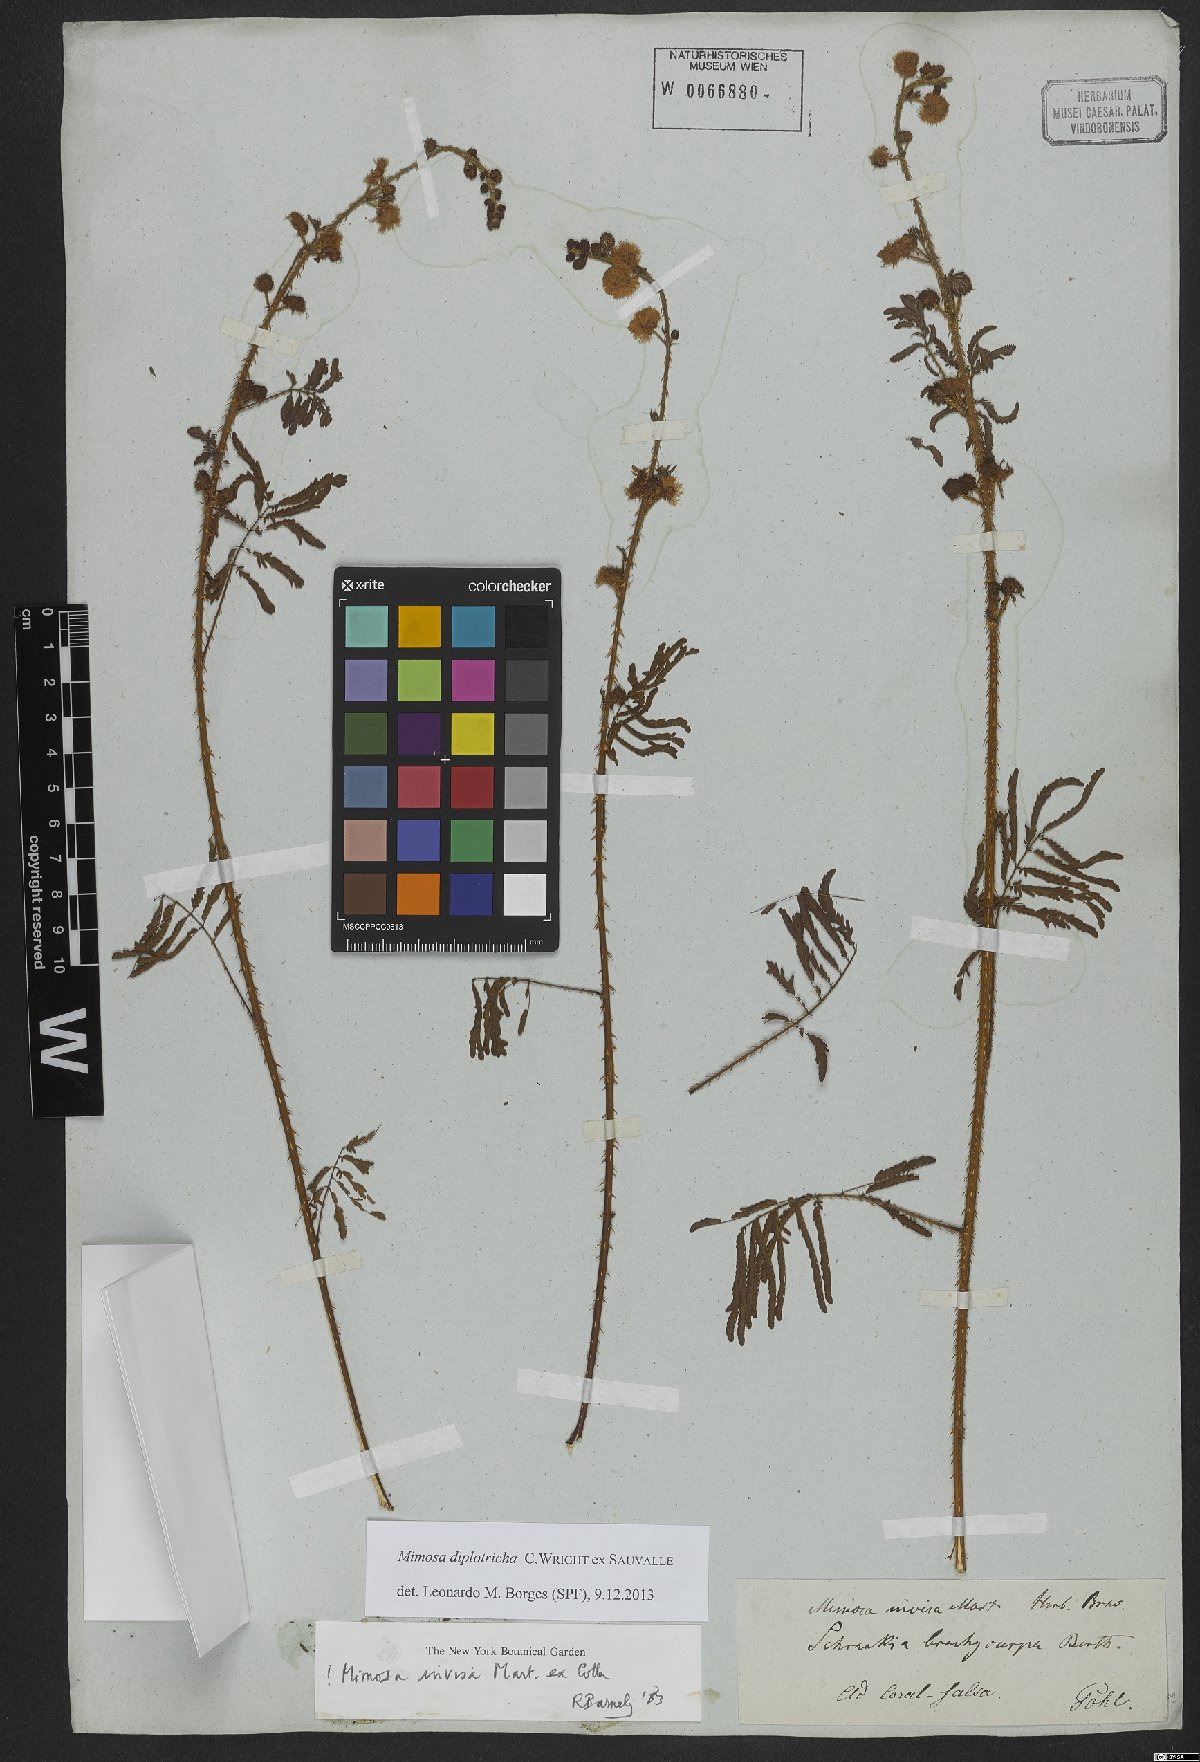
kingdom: Plantae
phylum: Tracheophyta
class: Magnoliopsida
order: Fabales
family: Fabaceae
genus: Mimosa
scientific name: Mimosa diplotricha
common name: Giant sensitive-plant
